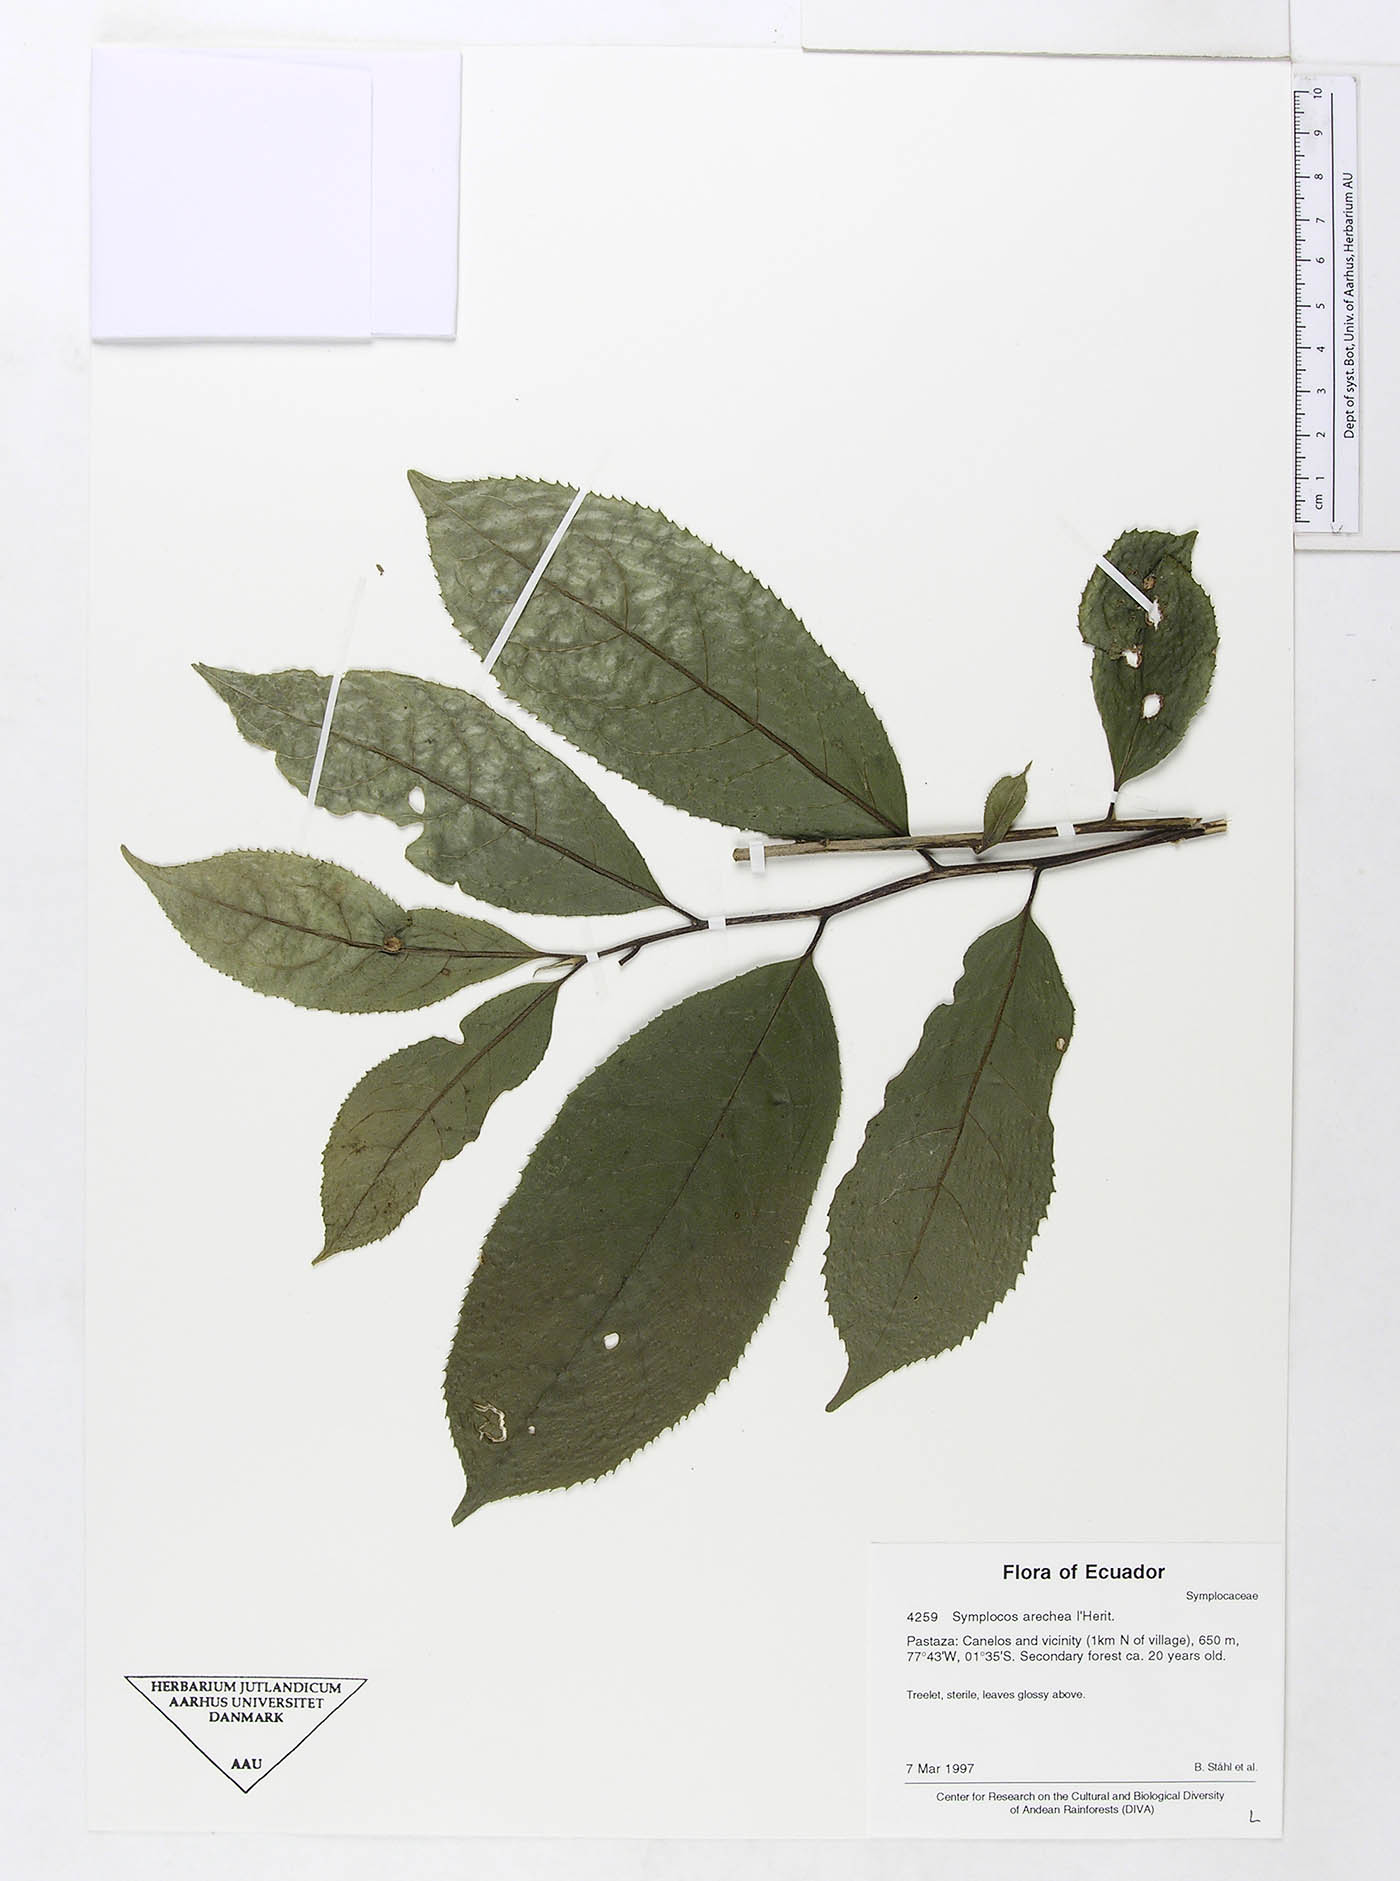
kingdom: Plantae
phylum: Tracheophyta
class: Magnoliopsida
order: Ericales
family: Symplocaceae
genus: Symplocos
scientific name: Symplocos arechea
